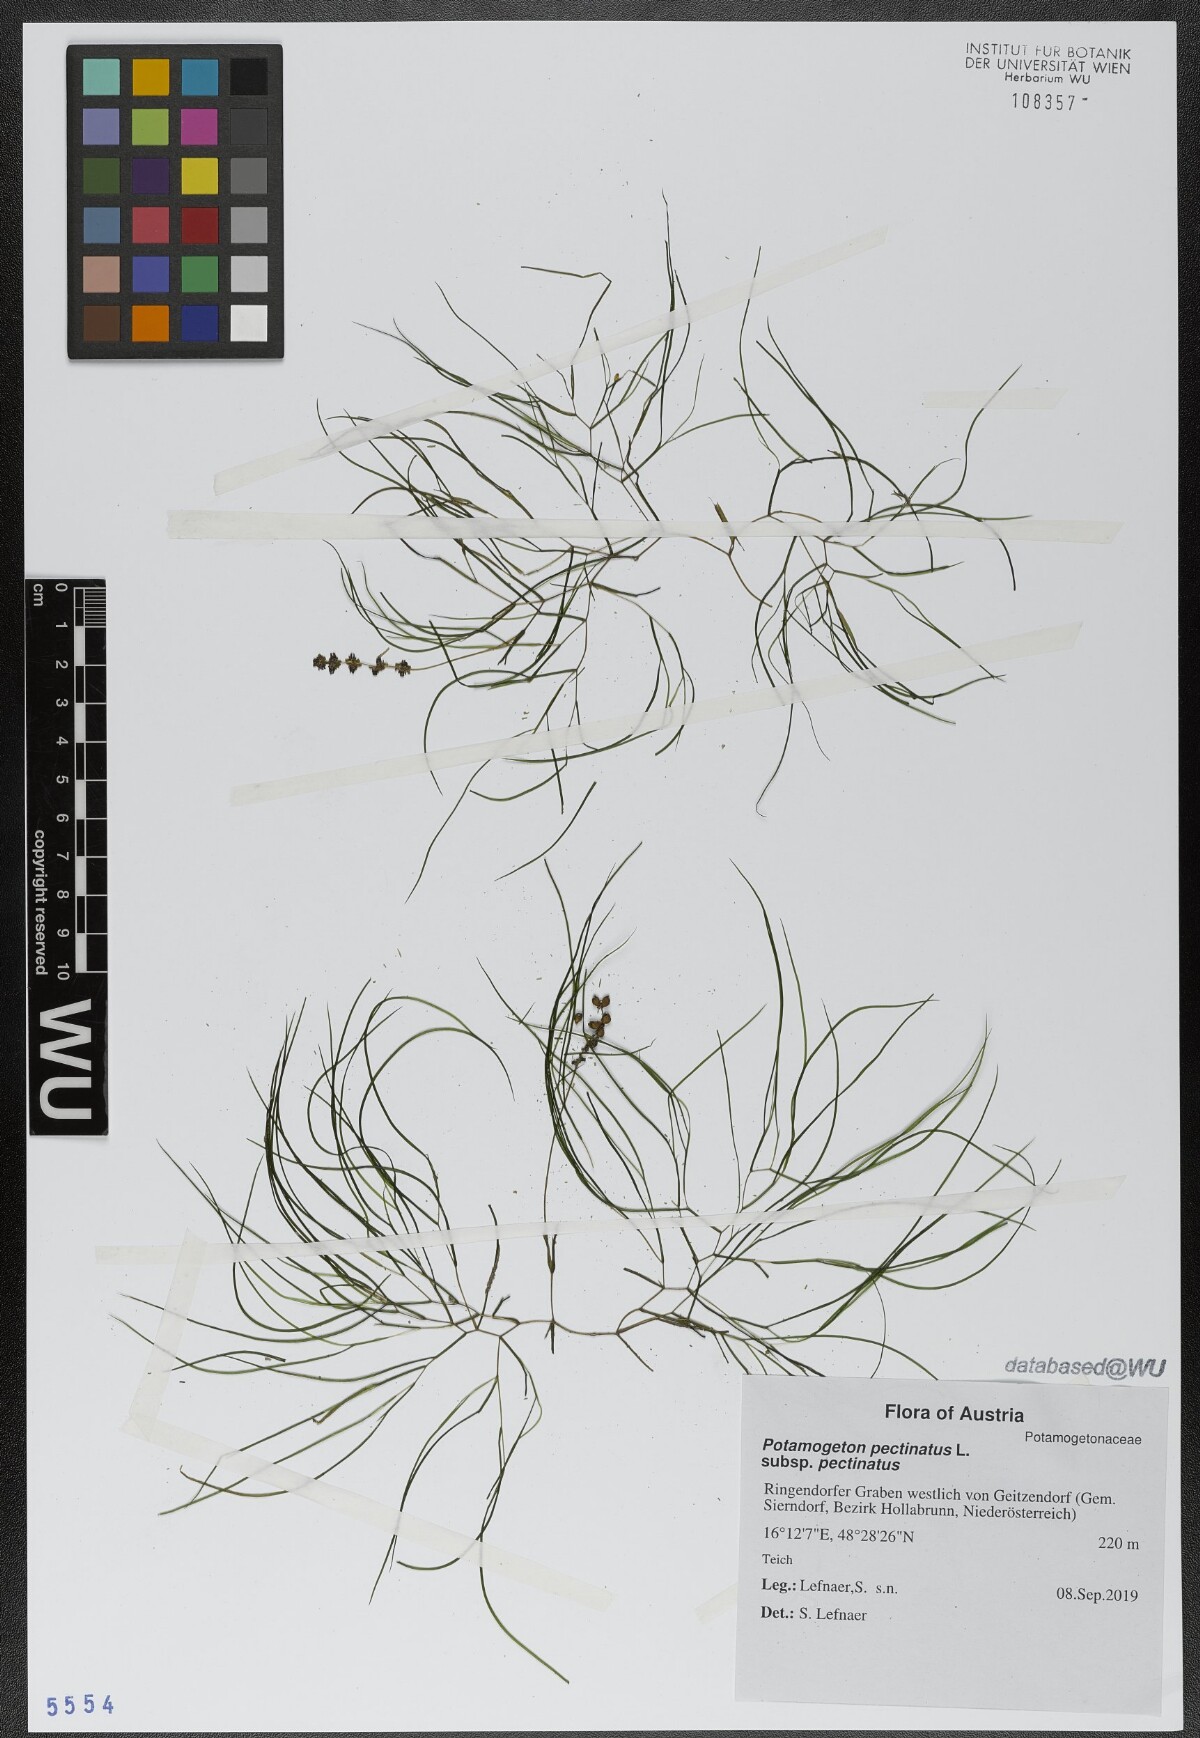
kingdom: Plantae
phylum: Tracheophyta
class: Liliopsida
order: Alismatales
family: Potamogetonaceae
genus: Stuckenia
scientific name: Stuckenia pectinata
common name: Sago pondweed
